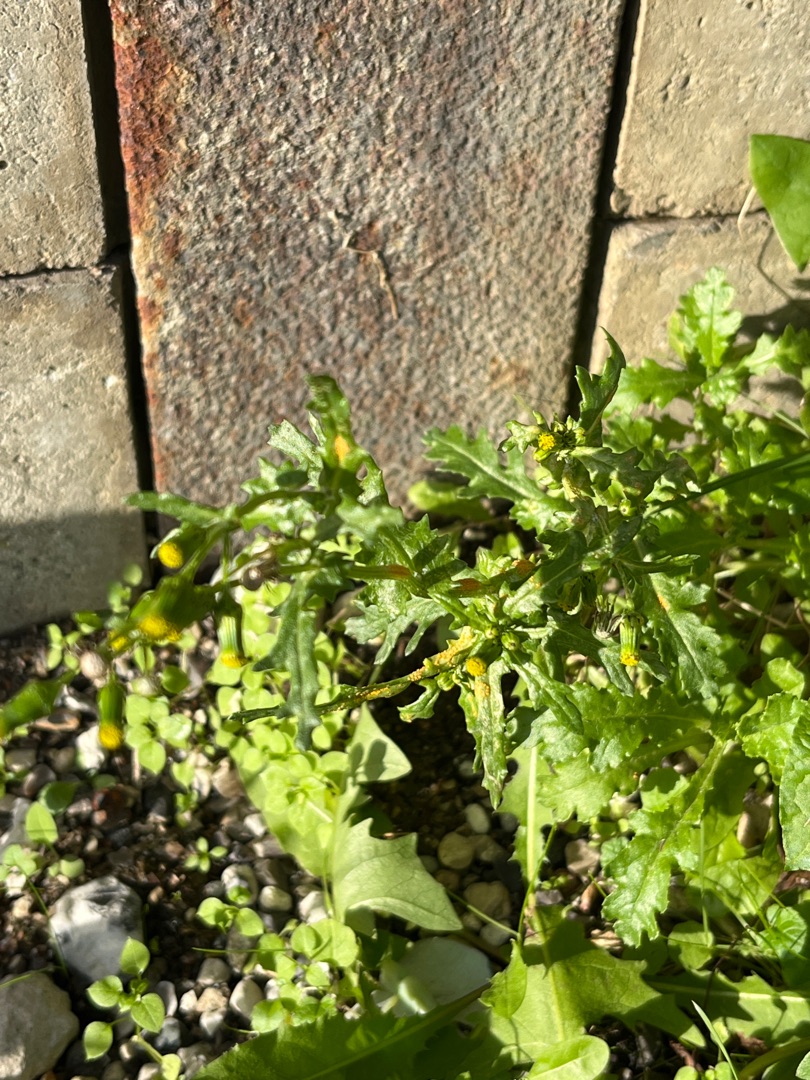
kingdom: Plantae
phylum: Tracheophyta
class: Magnoliopsida
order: Asterales
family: Asteraceae
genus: Senecio
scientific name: Senecio vulgaris
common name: Almindelig brandbæger
